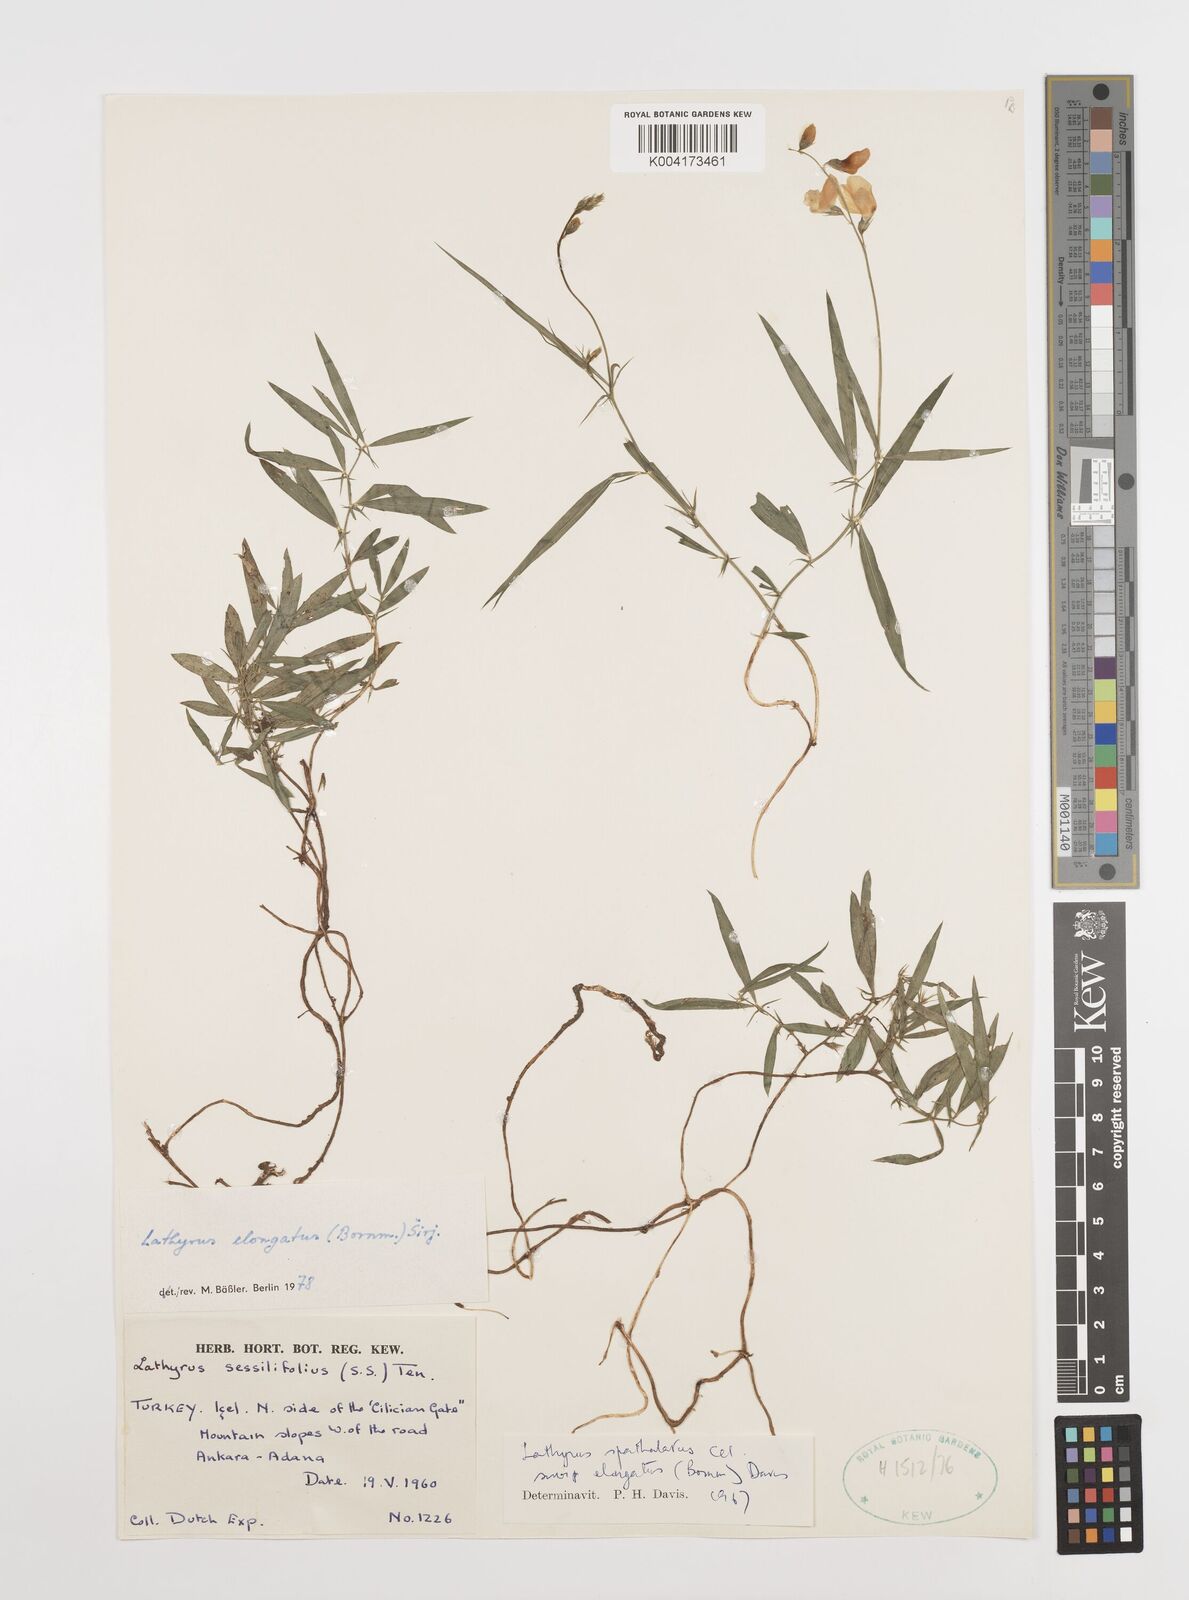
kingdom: Plantae
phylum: Tracheophyta
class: Magnoliopsida
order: Fabales
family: Fabaceae
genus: Lathyrus
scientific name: Lathyrus elongatus
